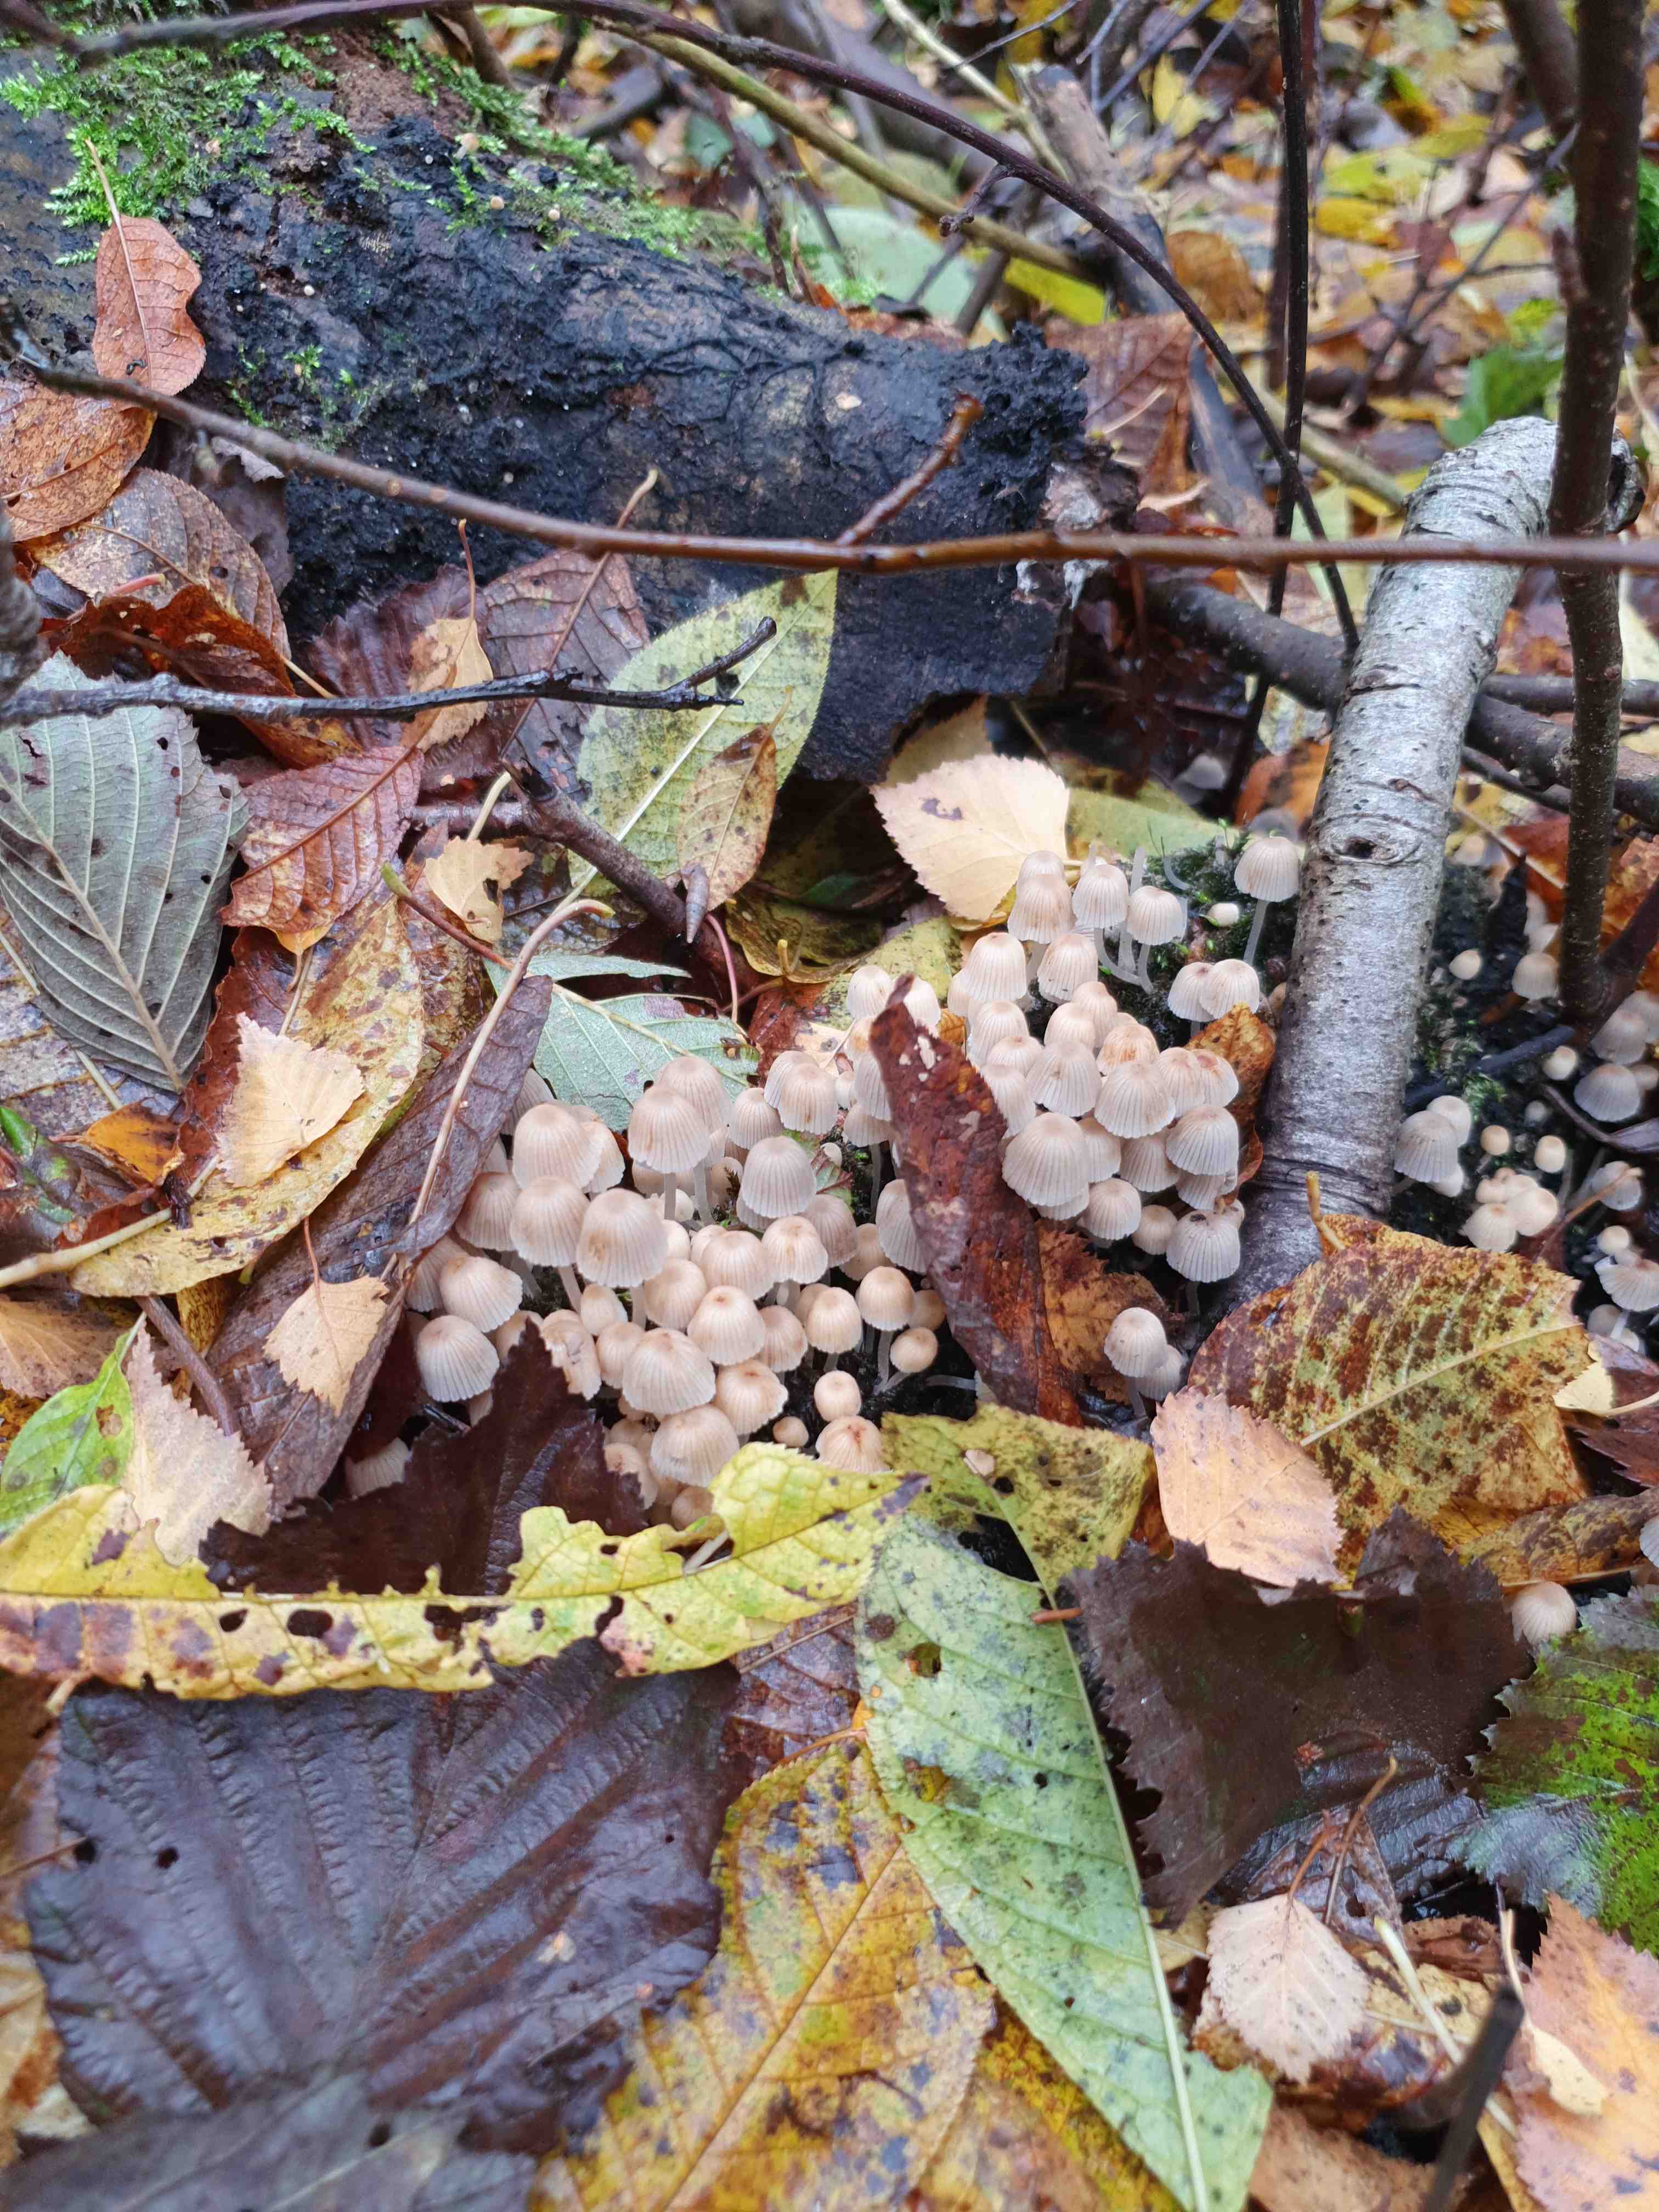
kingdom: Fungi
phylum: Basidiomycota
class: Agaricomycetes
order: Agaricales
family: Psathyrellaceae
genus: Coprinellus
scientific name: Coprinellus disseminatus
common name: bredsået blækhat
